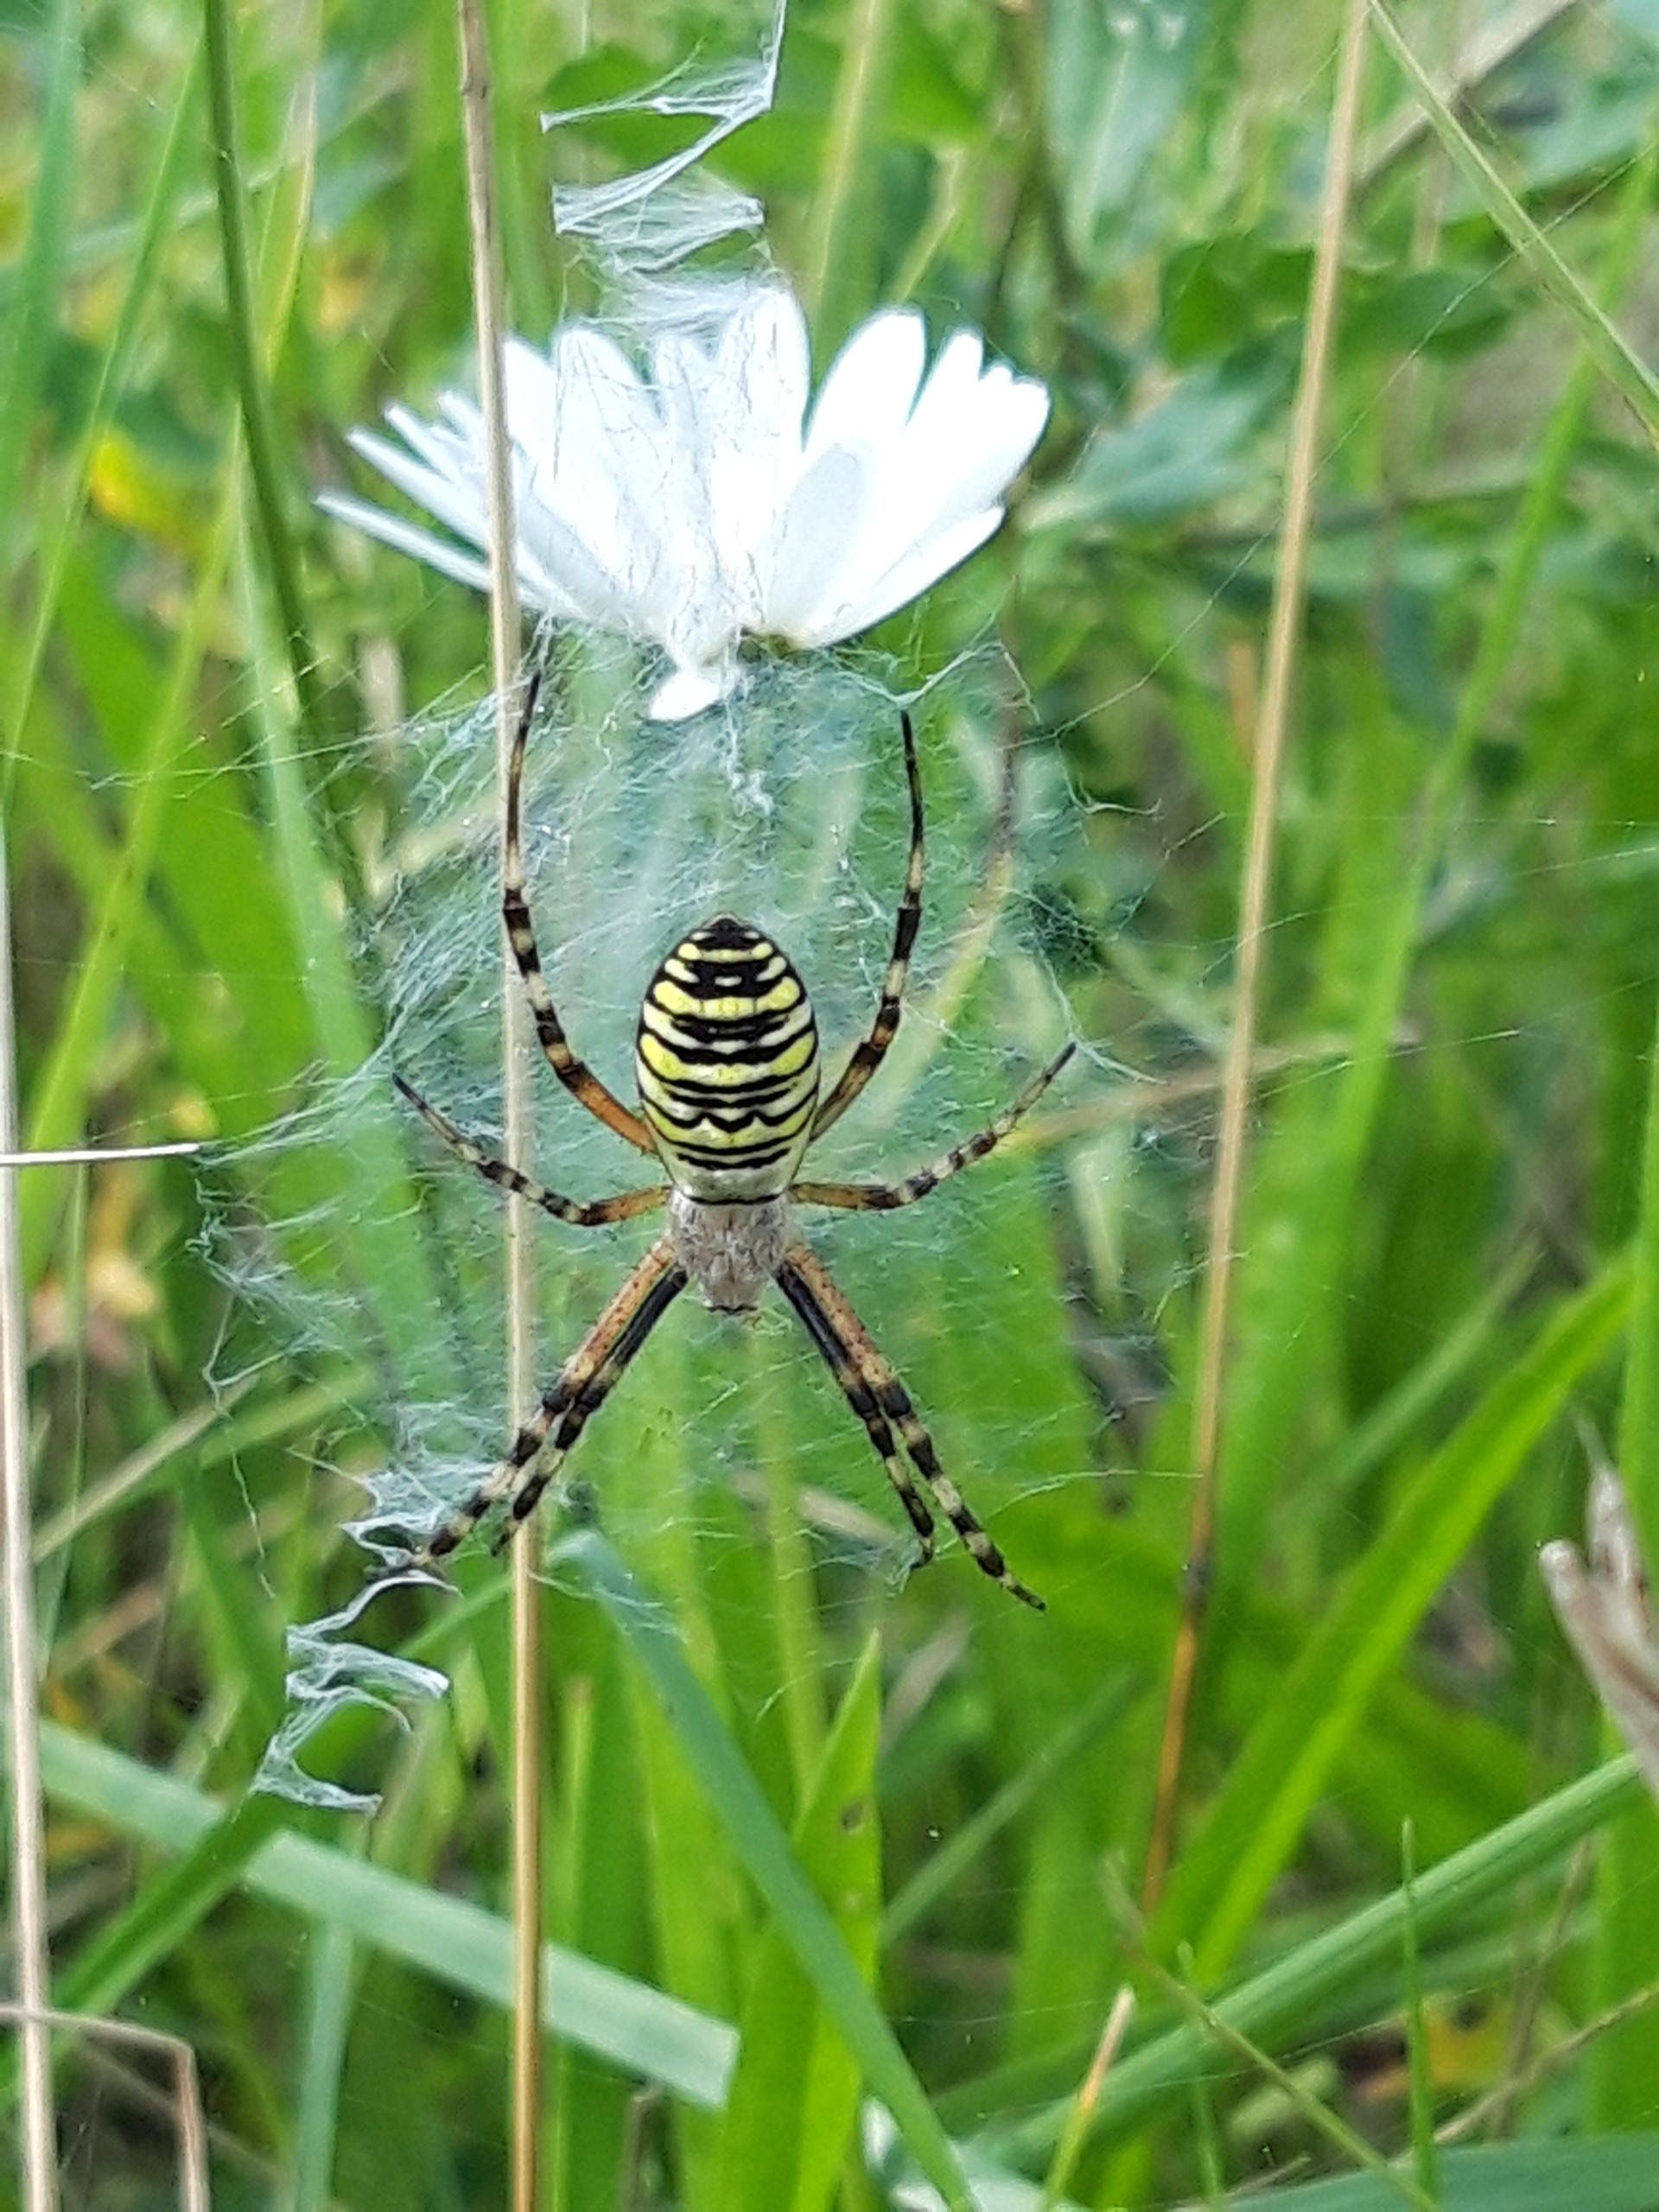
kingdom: Animalia
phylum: Arthropoda
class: Arachnida
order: Araneae
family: Araneidae
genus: Argiope
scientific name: Argiope bruennichi
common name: Hvepseedderkop
